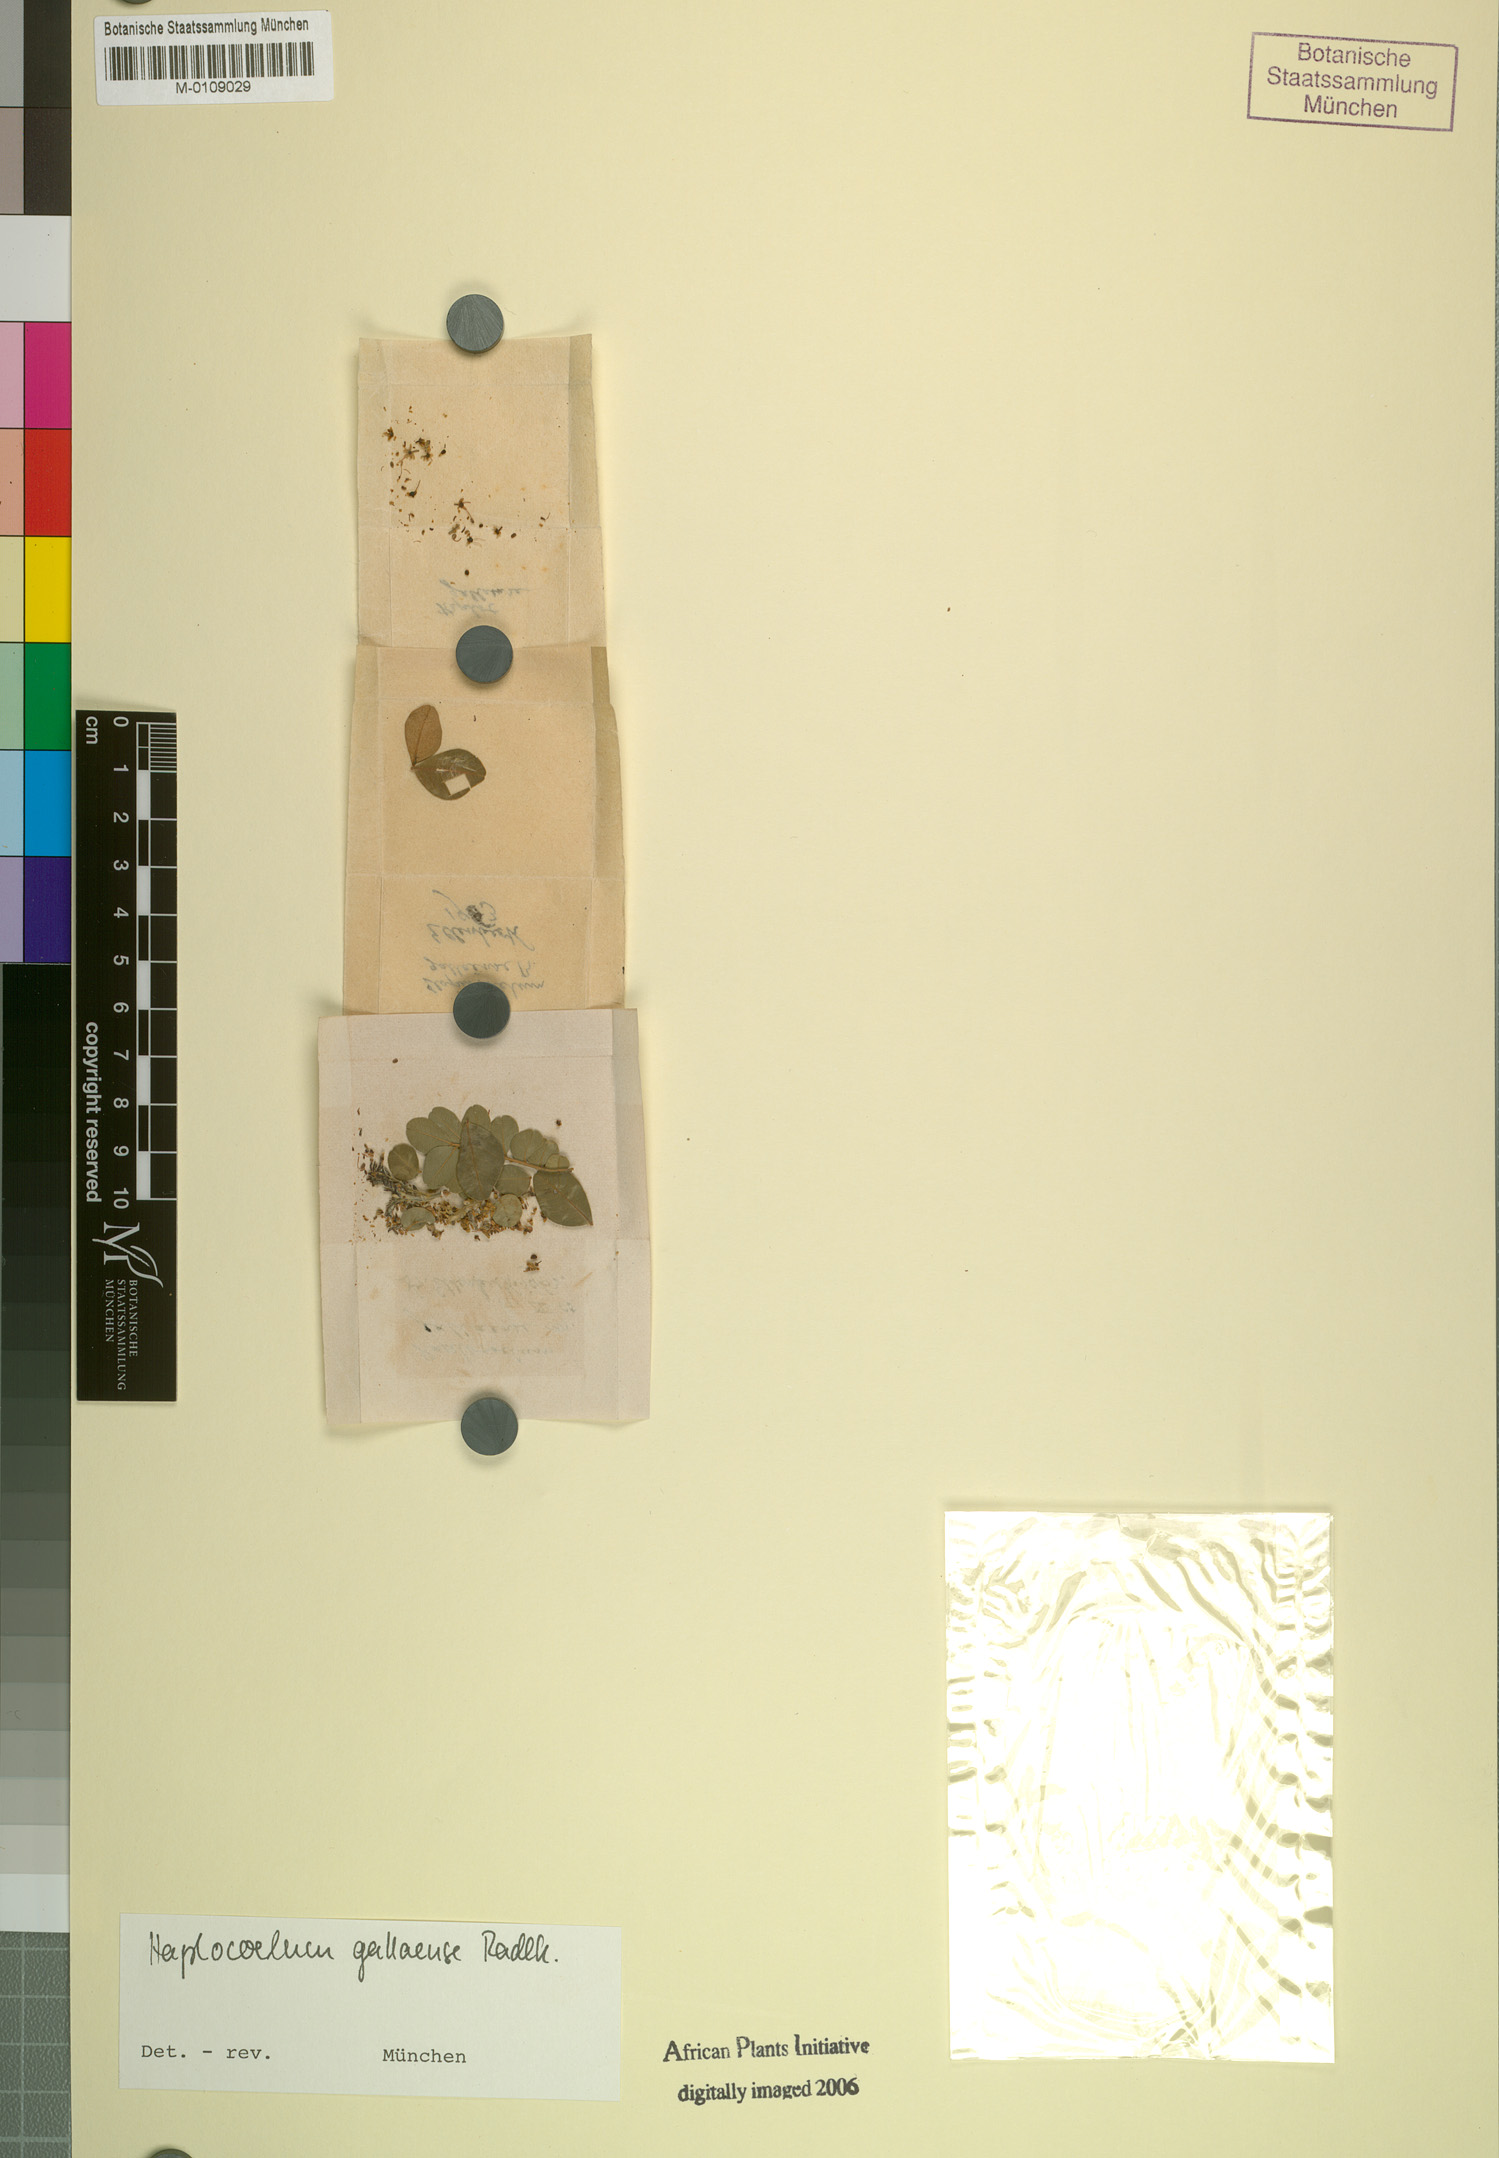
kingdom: Plantae
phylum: Tracheophyta
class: Magnoliopsida
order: Sapindales
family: Sapindaceae
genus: Haplocoelum
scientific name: Haplocoelum inopleum
